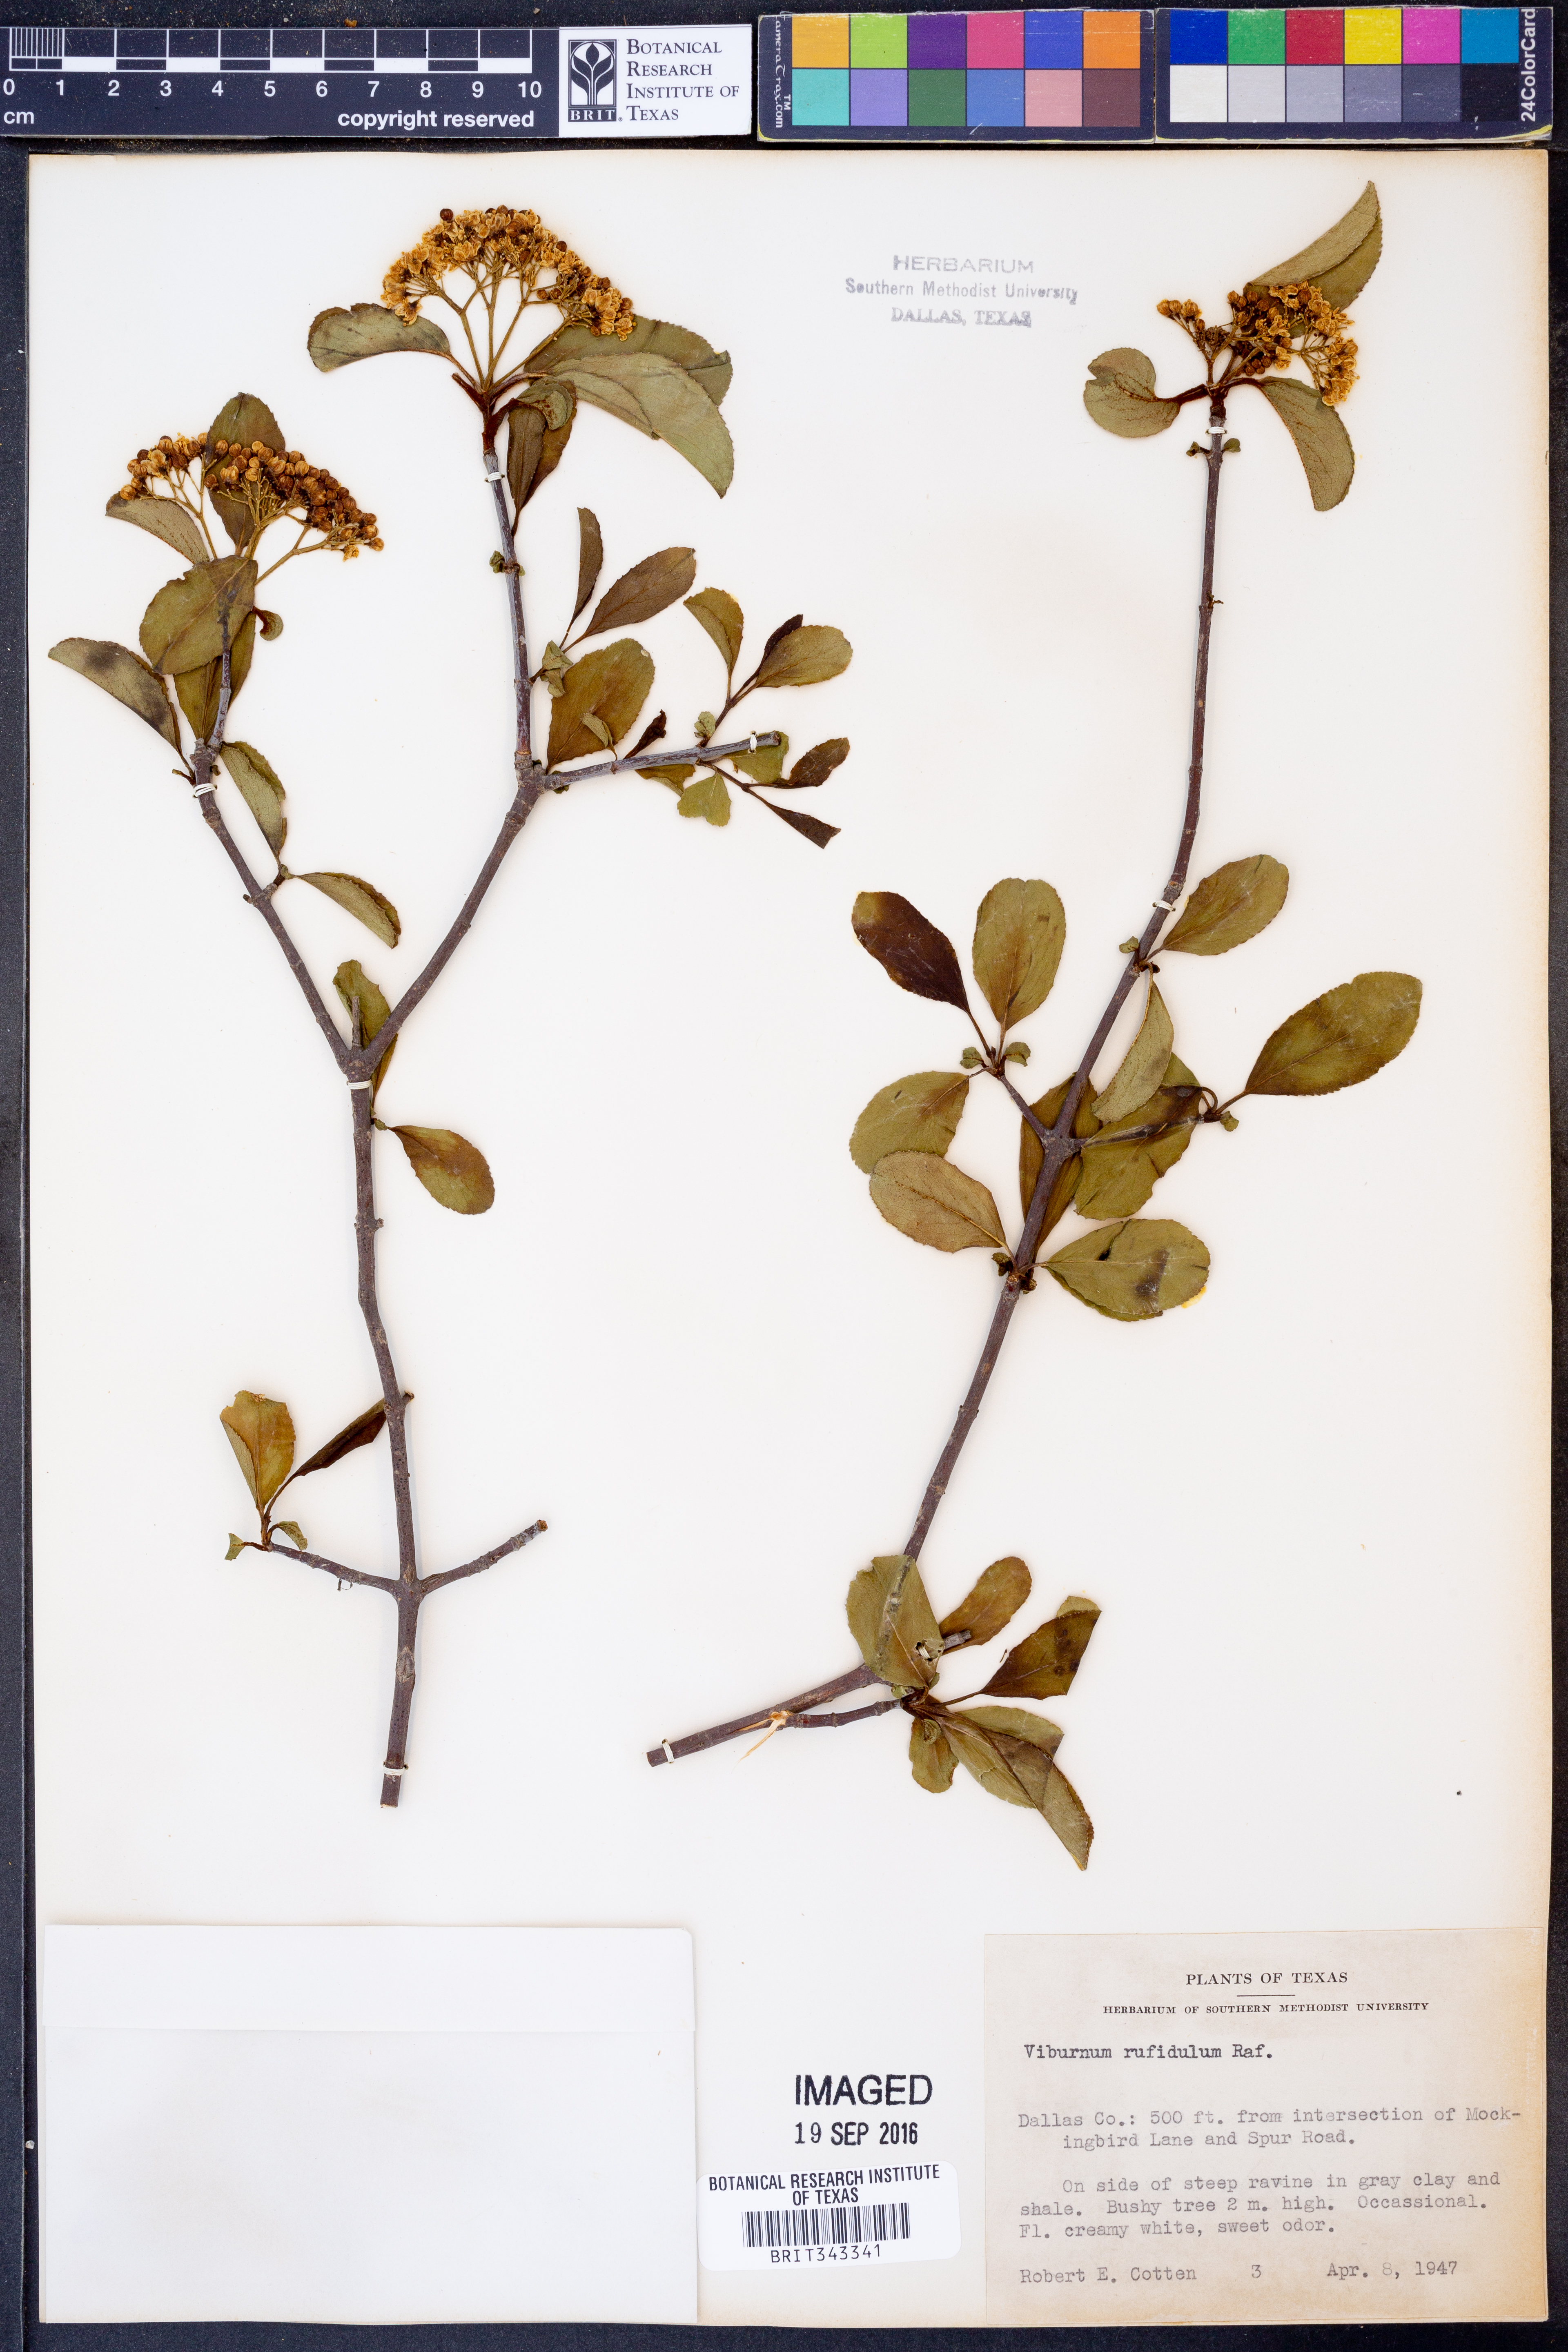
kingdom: Plantae
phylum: Tracheophyta
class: Magnoliopsida
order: Dipsacales
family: Viburnaceae
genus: Viburnum
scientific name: Viburnum rufidulum
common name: Blue haw
